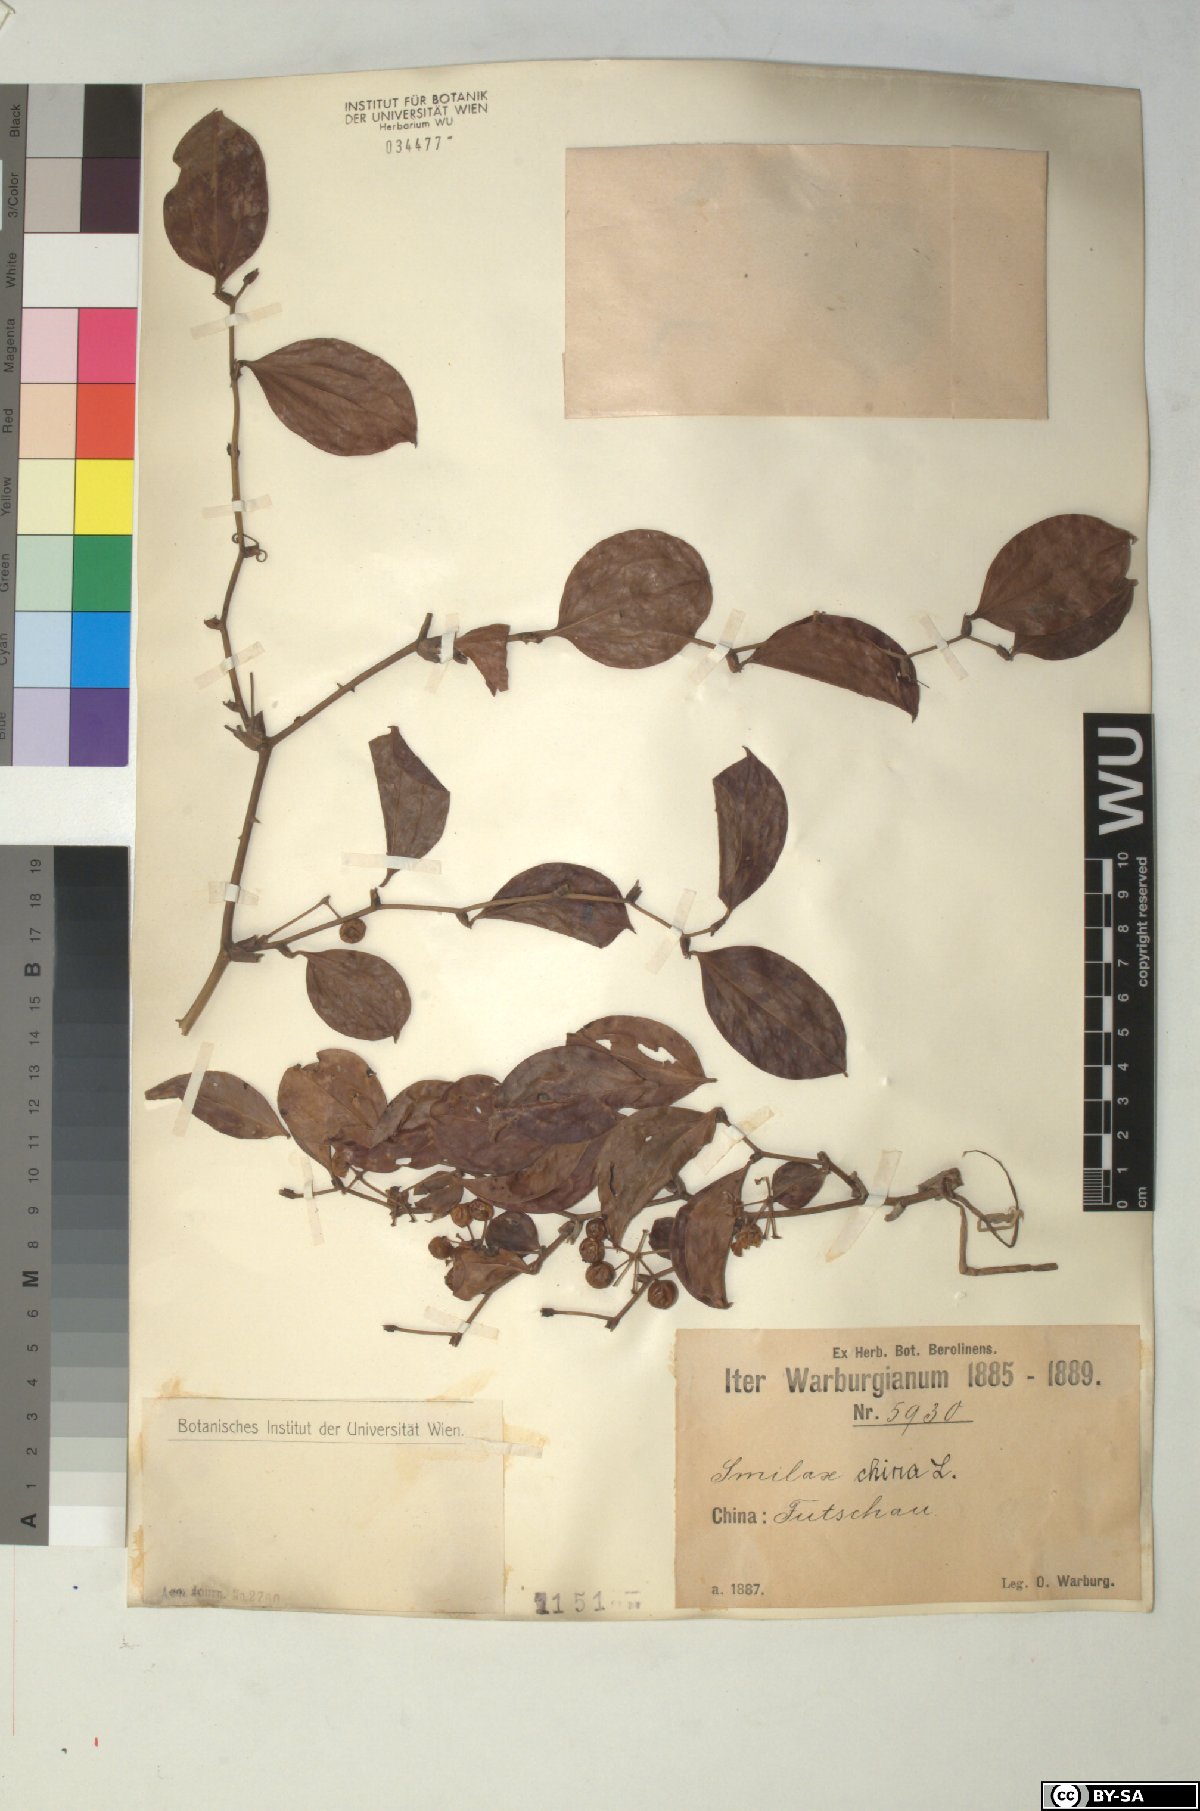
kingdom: Plantae
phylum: Tracheophyta
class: Liliopsida
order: Liliales
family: Smilacaceae
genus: Smilax
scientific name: Smilax china
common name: Chinaroot
